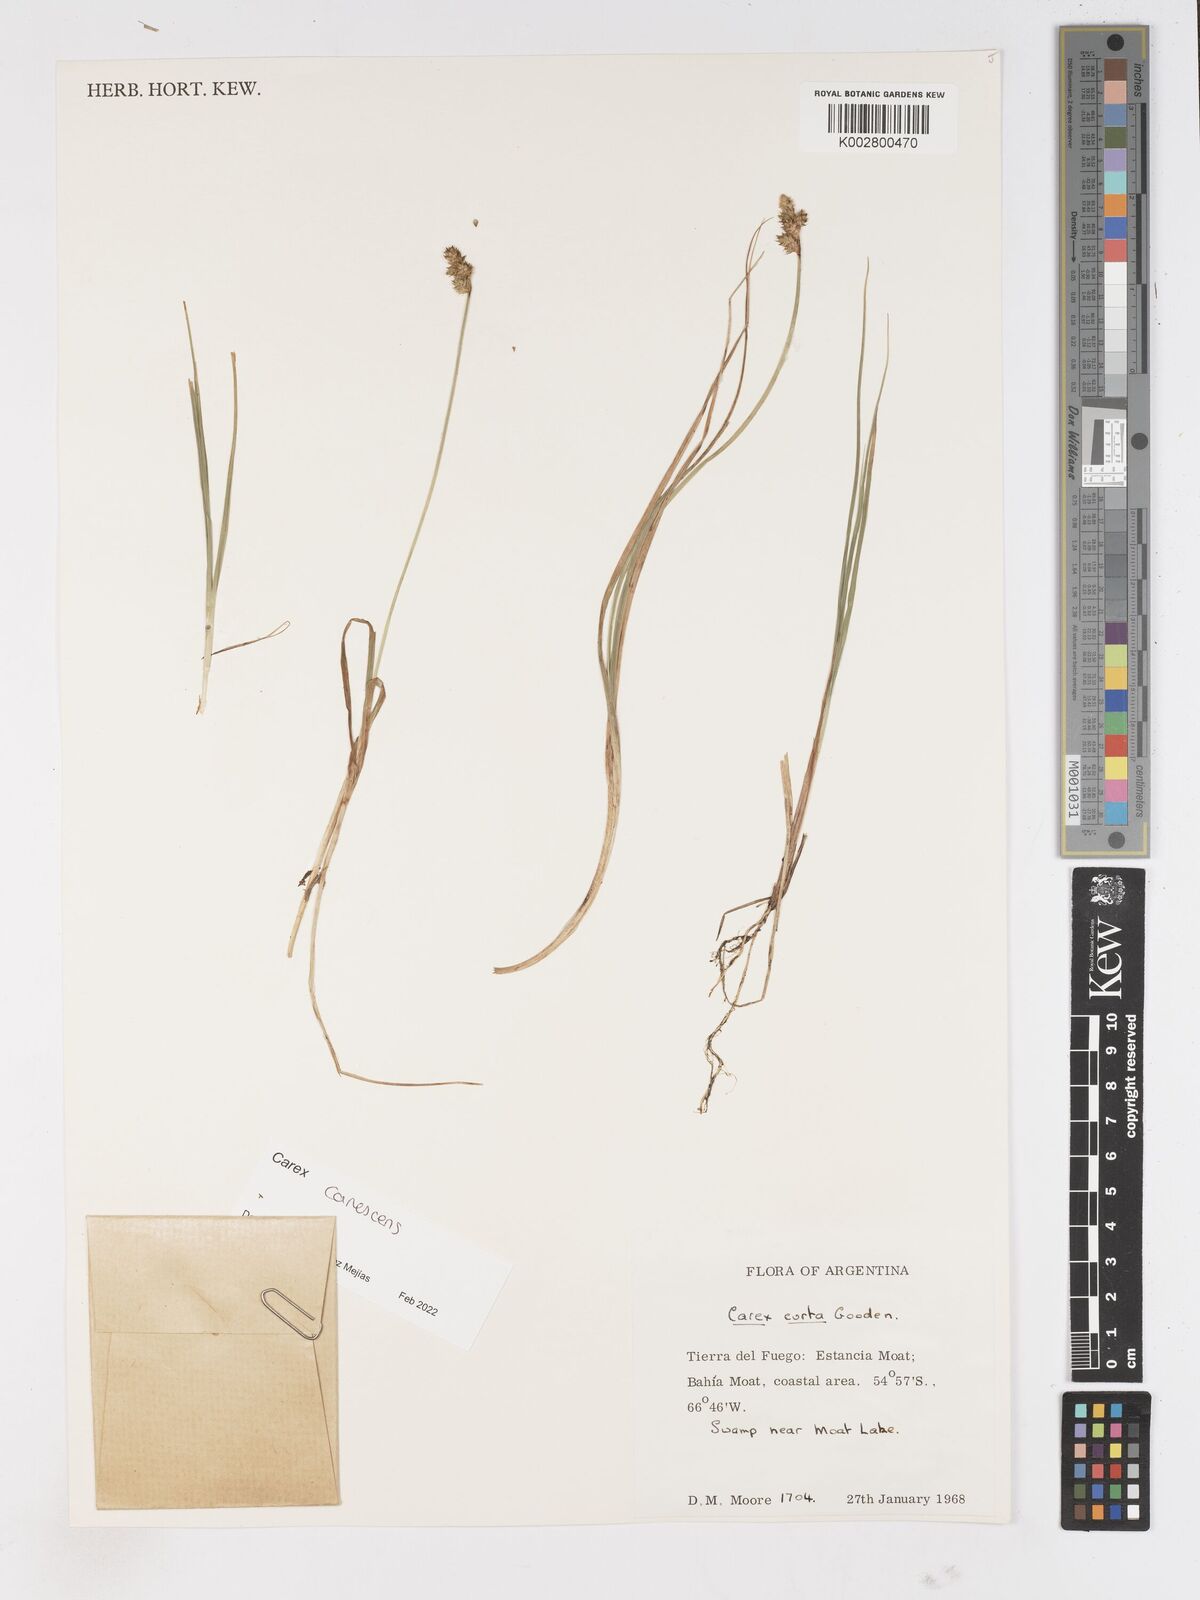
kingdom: Plantae
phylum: Tracheophyta
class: Liliopsida
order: Poales
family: Cyperaceae
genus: Carex
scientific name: Carex
